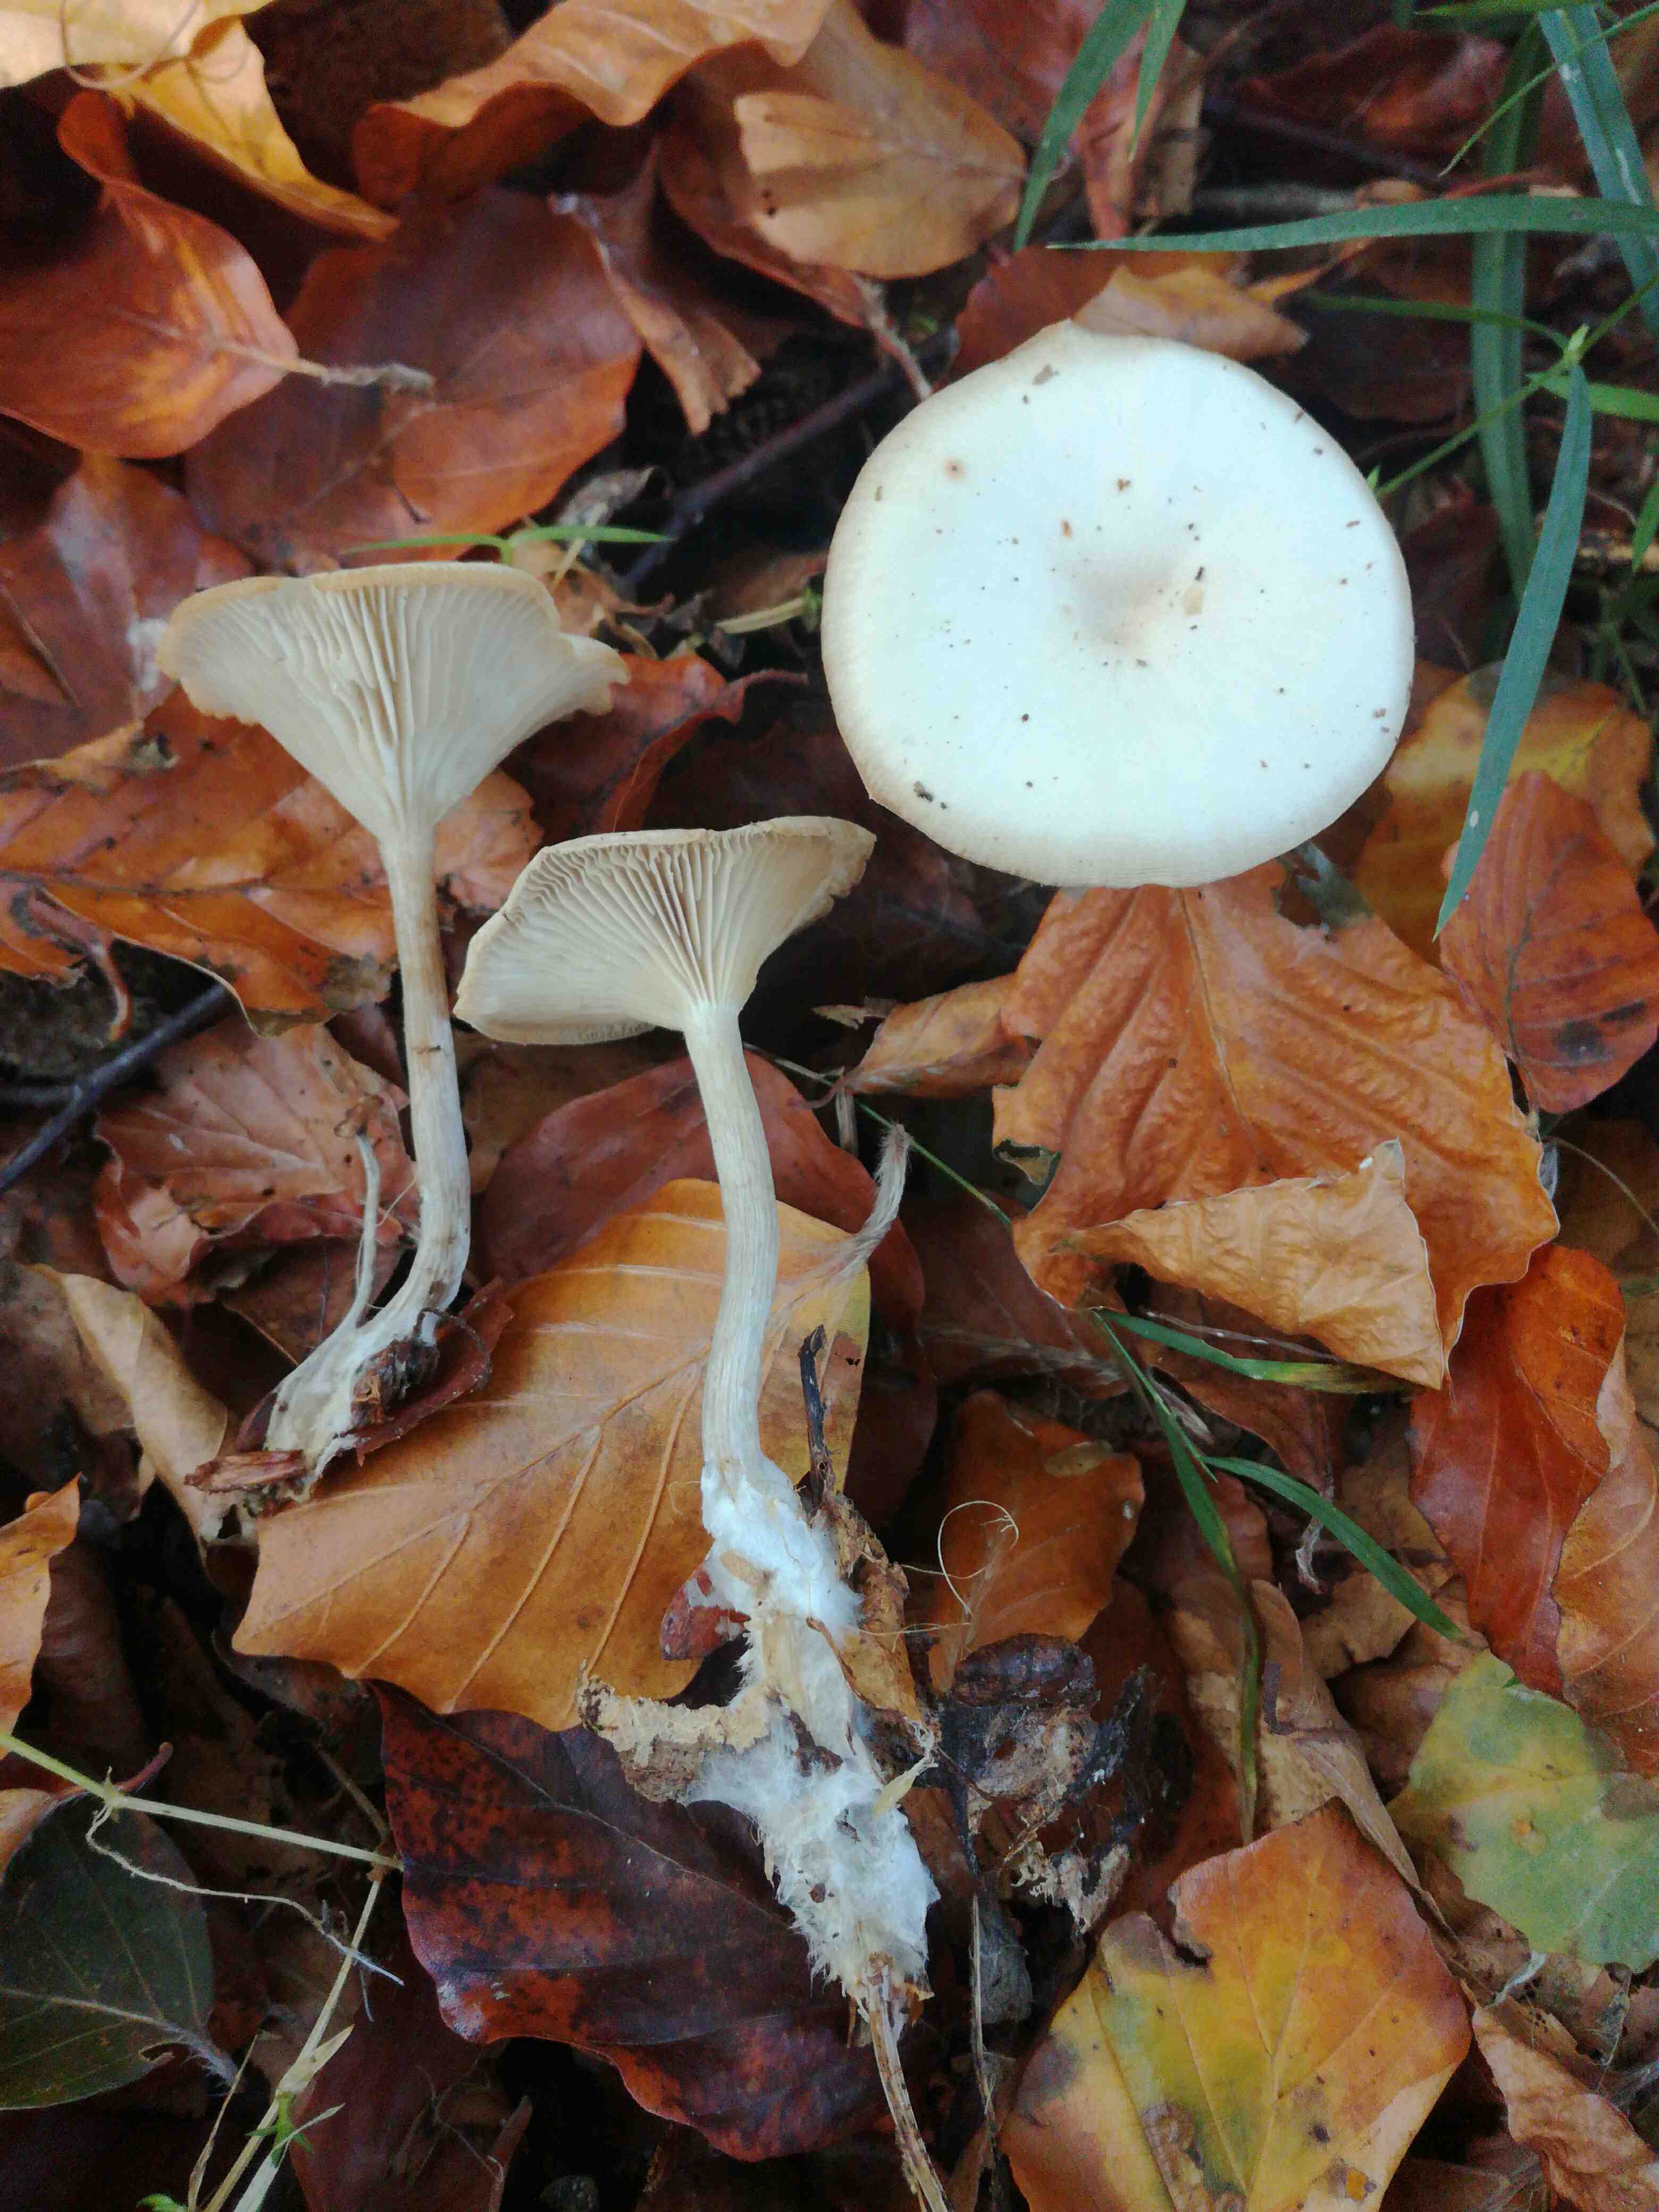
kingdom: Fungi
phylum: Basidiomycota
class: Agaricomycetes
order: Agaricales
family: Tricholomataceae
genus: Clitocybe
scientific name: Clitocybe
